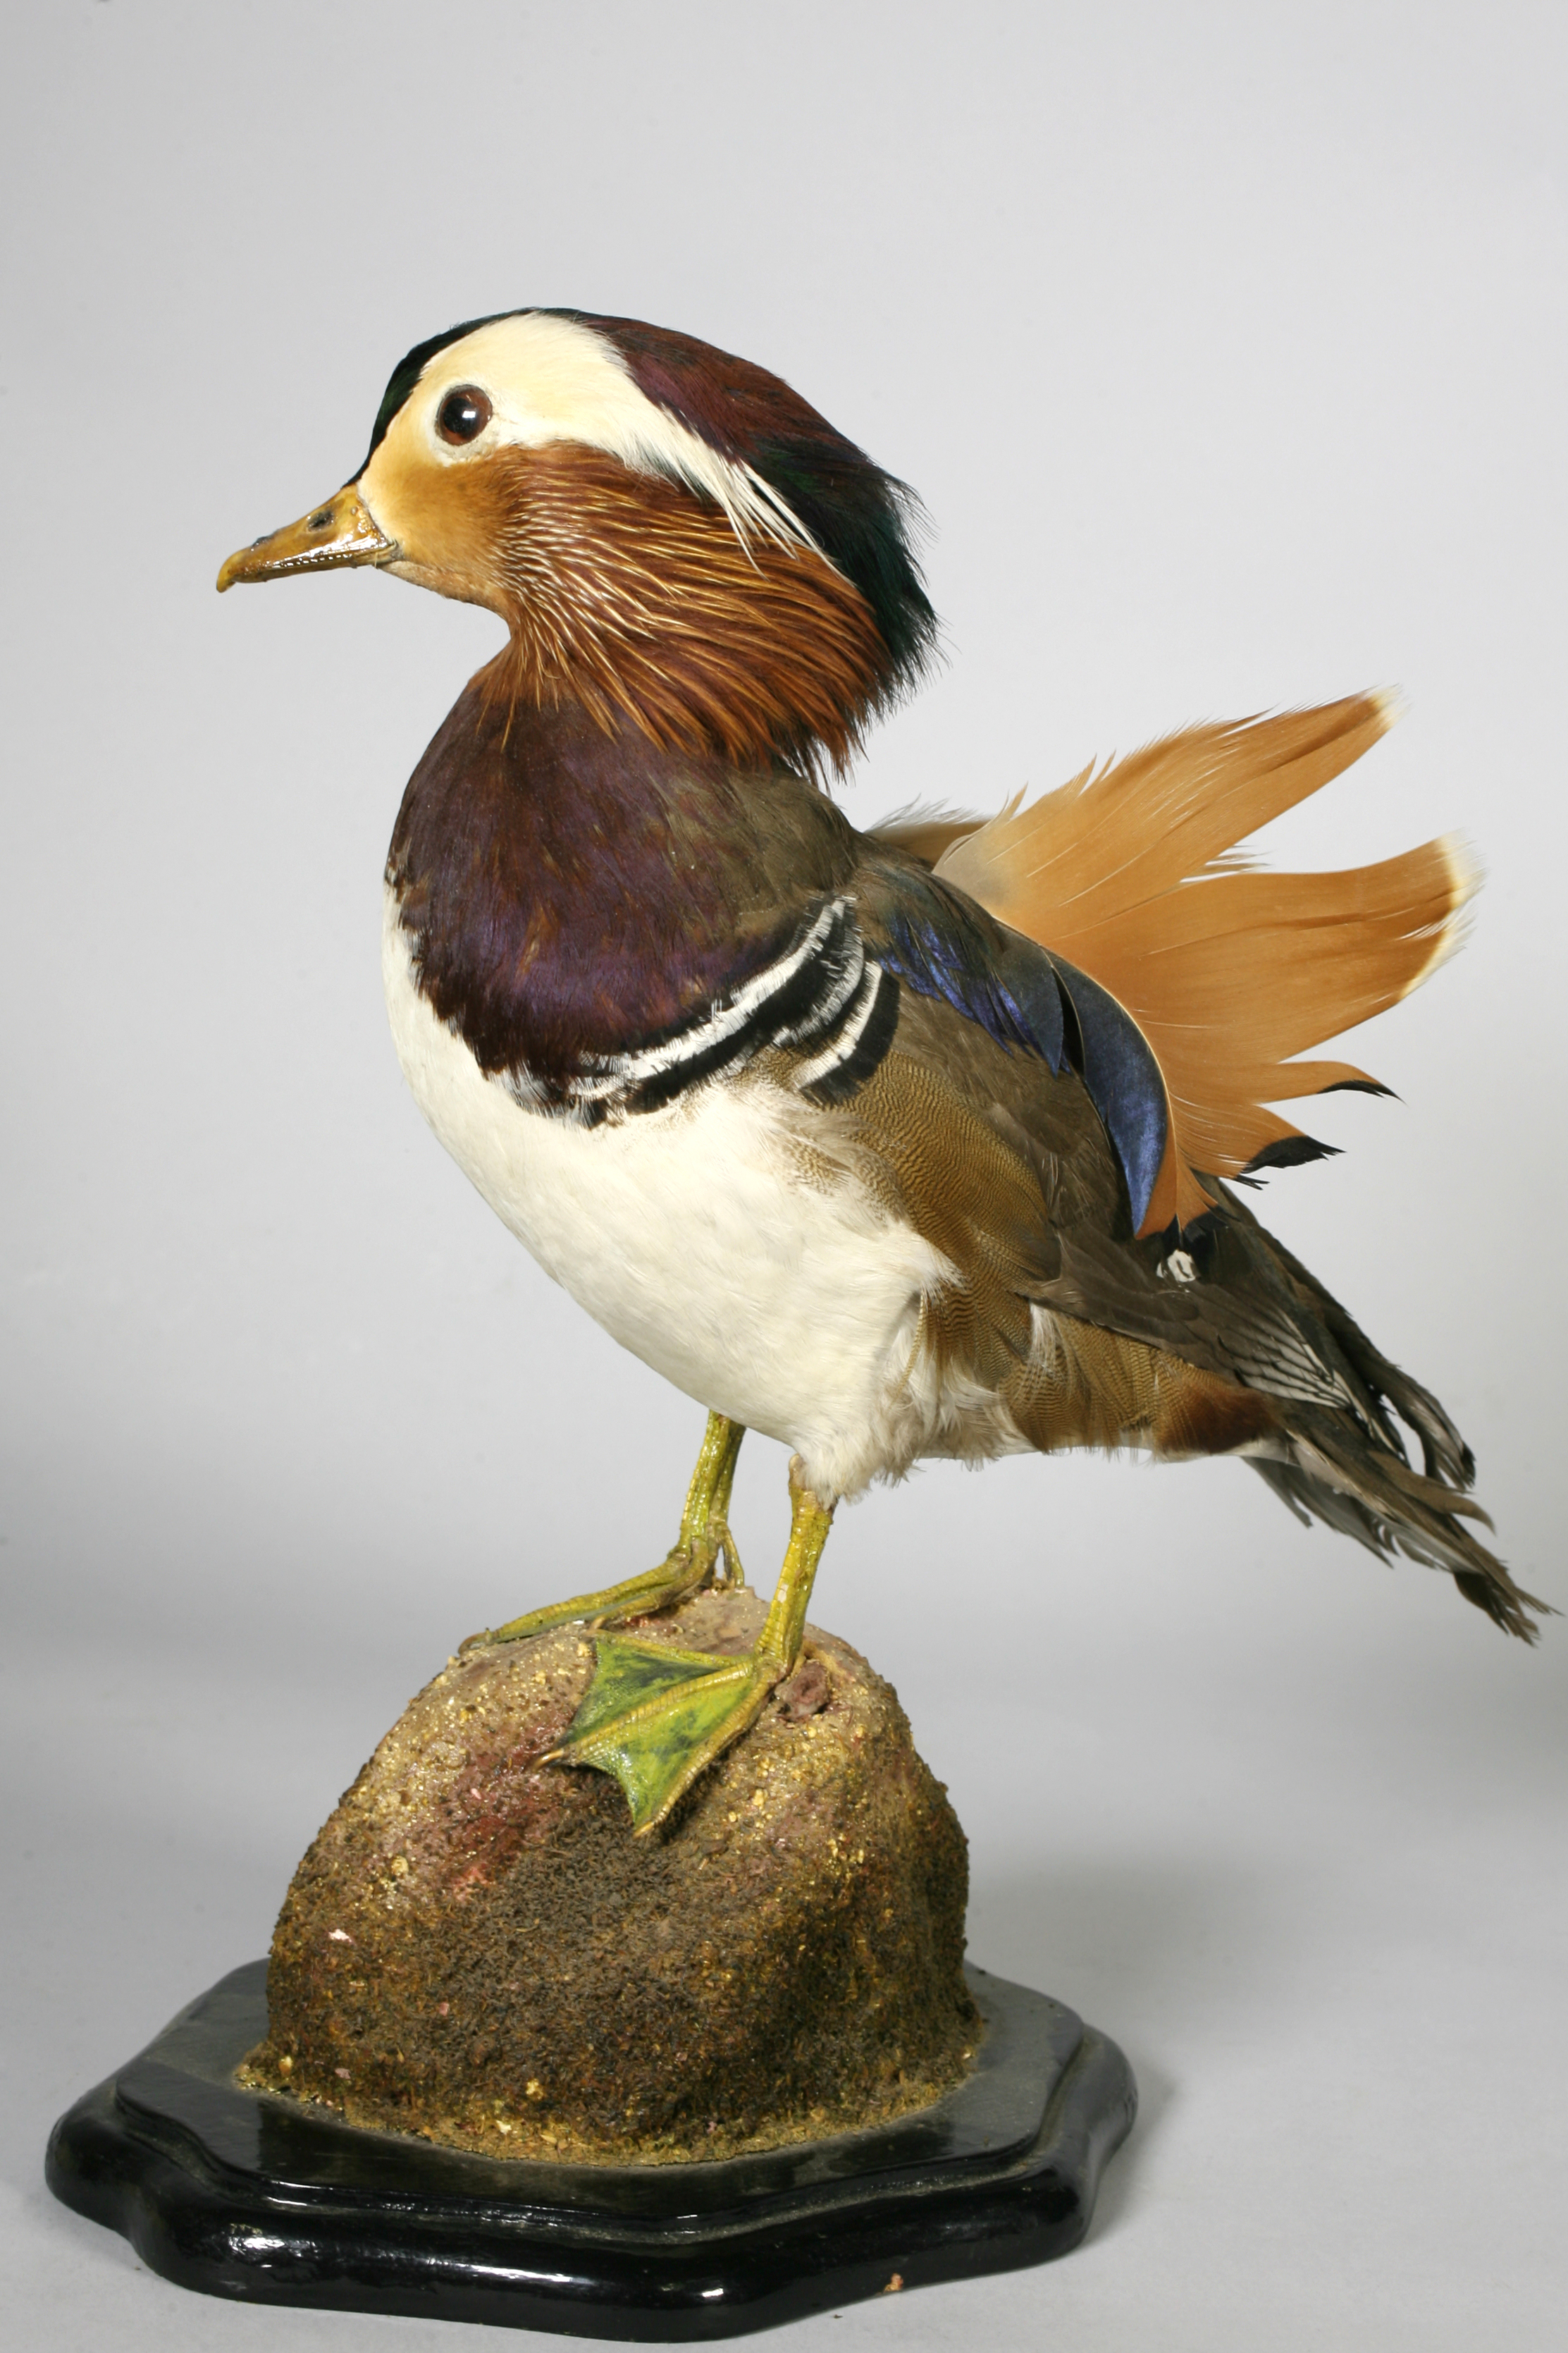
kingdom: Animalia
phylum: Chordata
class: Aves
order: Anseriformes
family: Anatidae
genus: Aix
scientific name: Aix galericulata
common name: Mandarin duck
